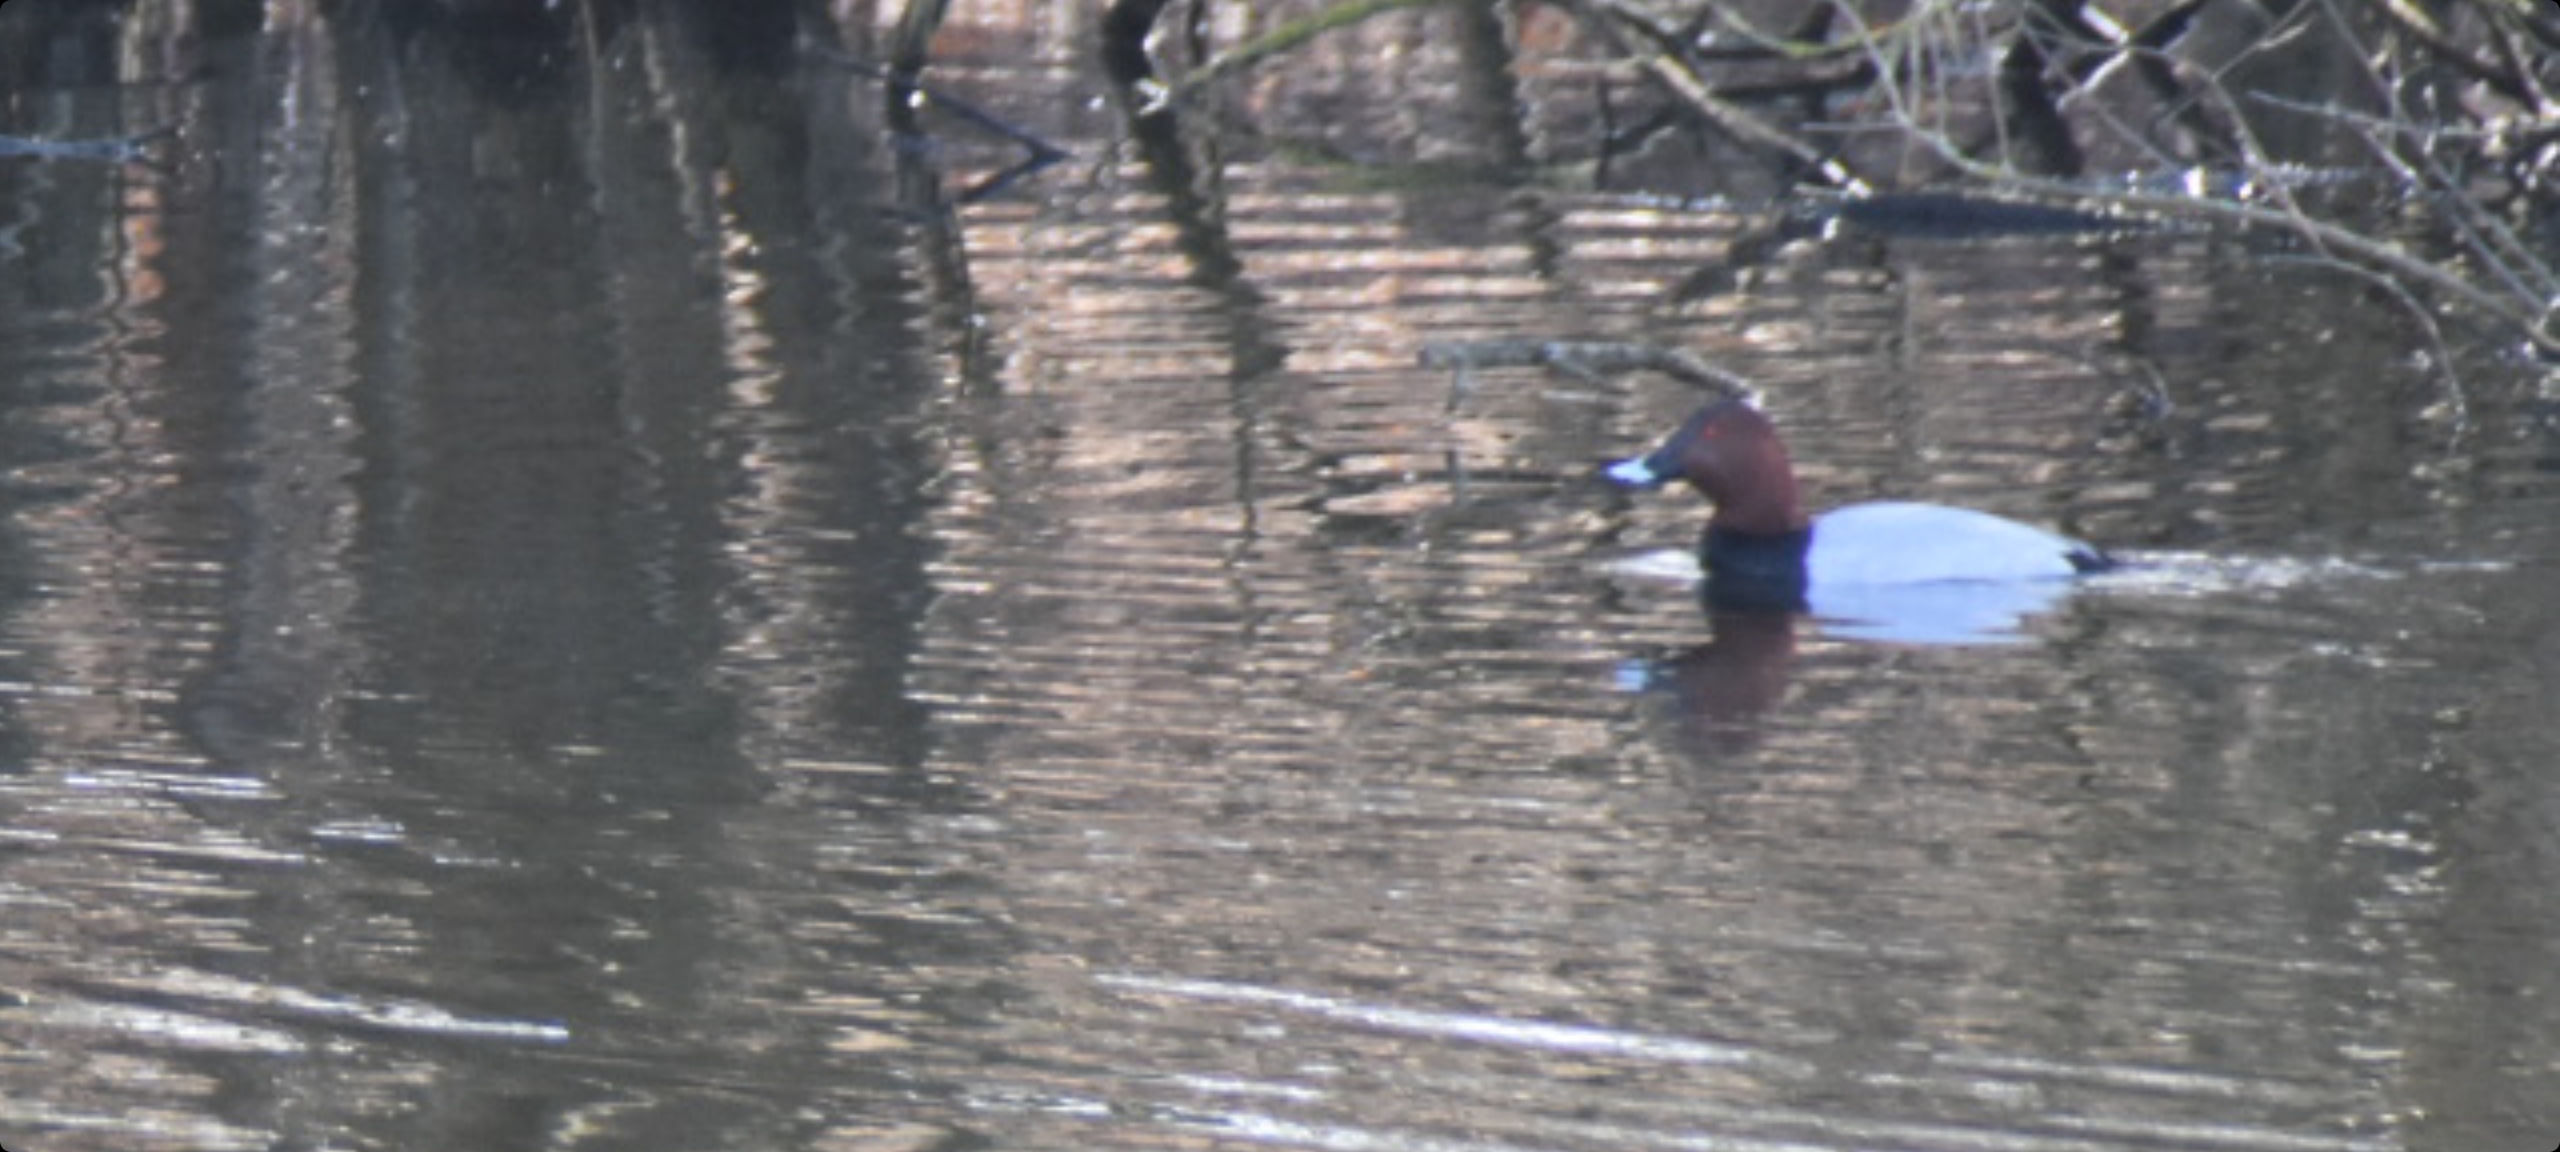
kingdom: Animalia
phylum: Chordata
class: Aves
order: Anseriformes
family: Anatidae
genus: Aythya
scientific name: Aythya ferina
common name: Taffeland
